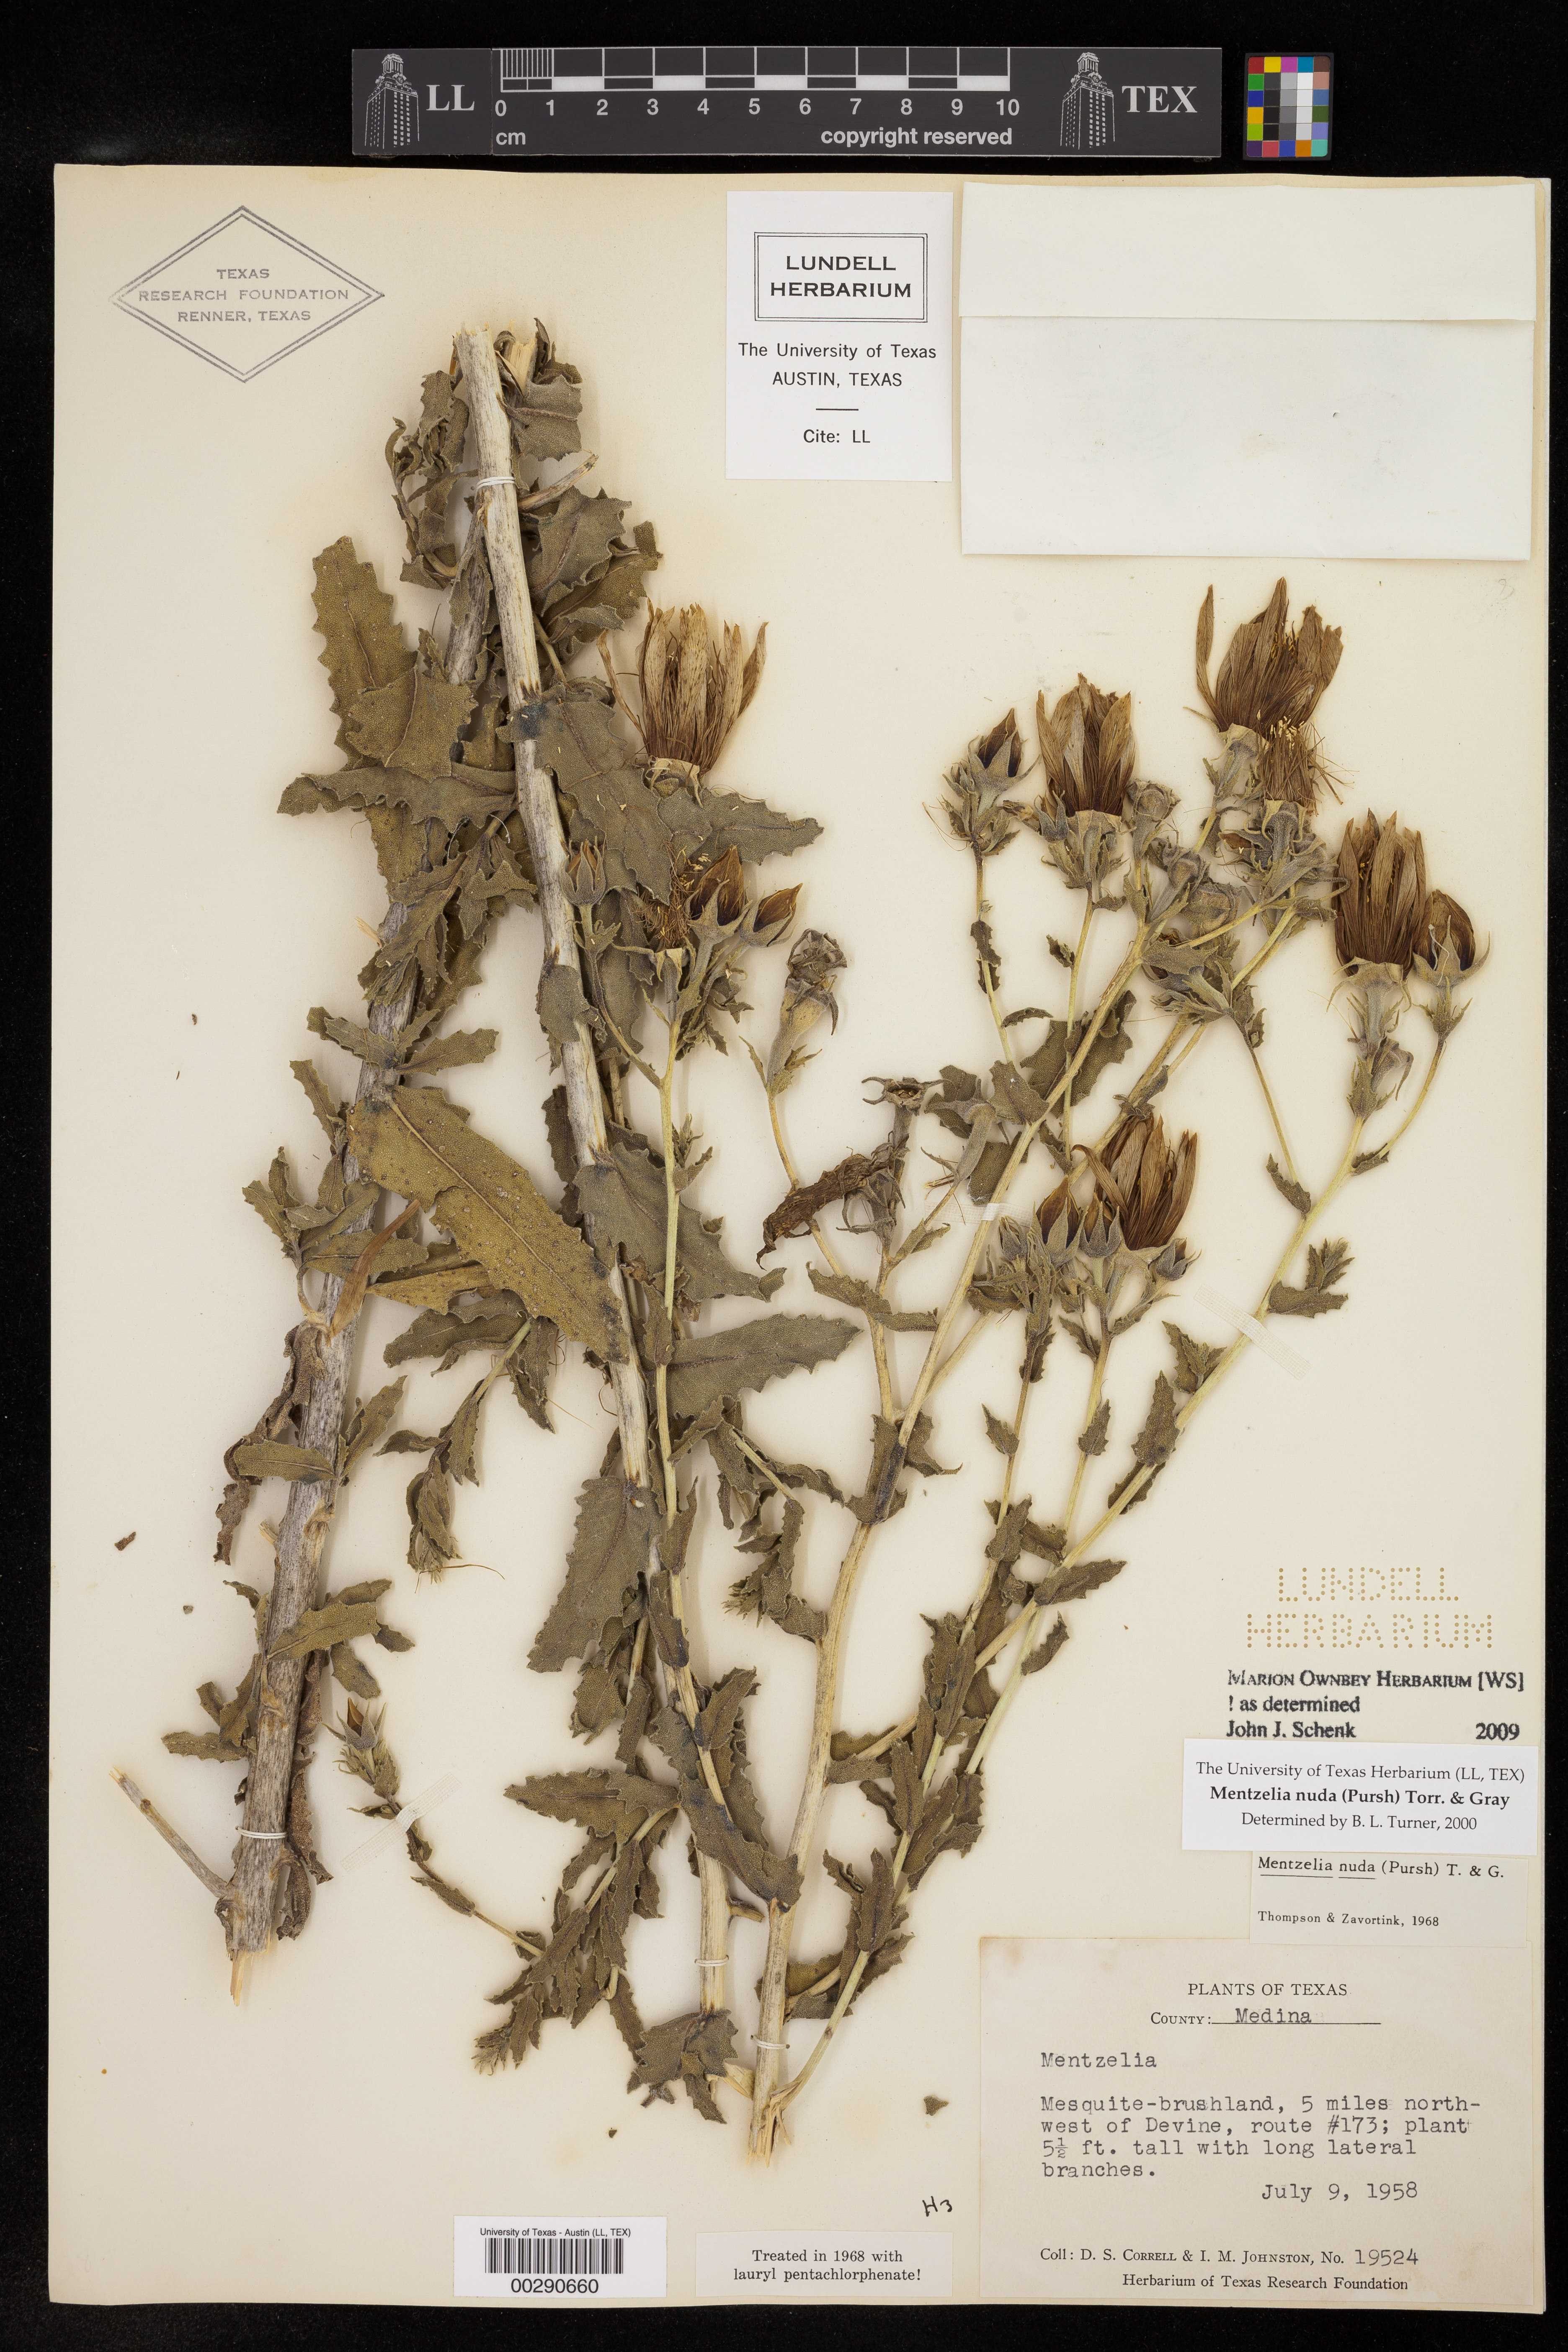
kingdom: Plantae
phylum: Tracheophyta
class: Magnoliopsida
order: Cornales
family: Loasaceae
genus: Mentzelia
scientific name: Mentzelia nuda
